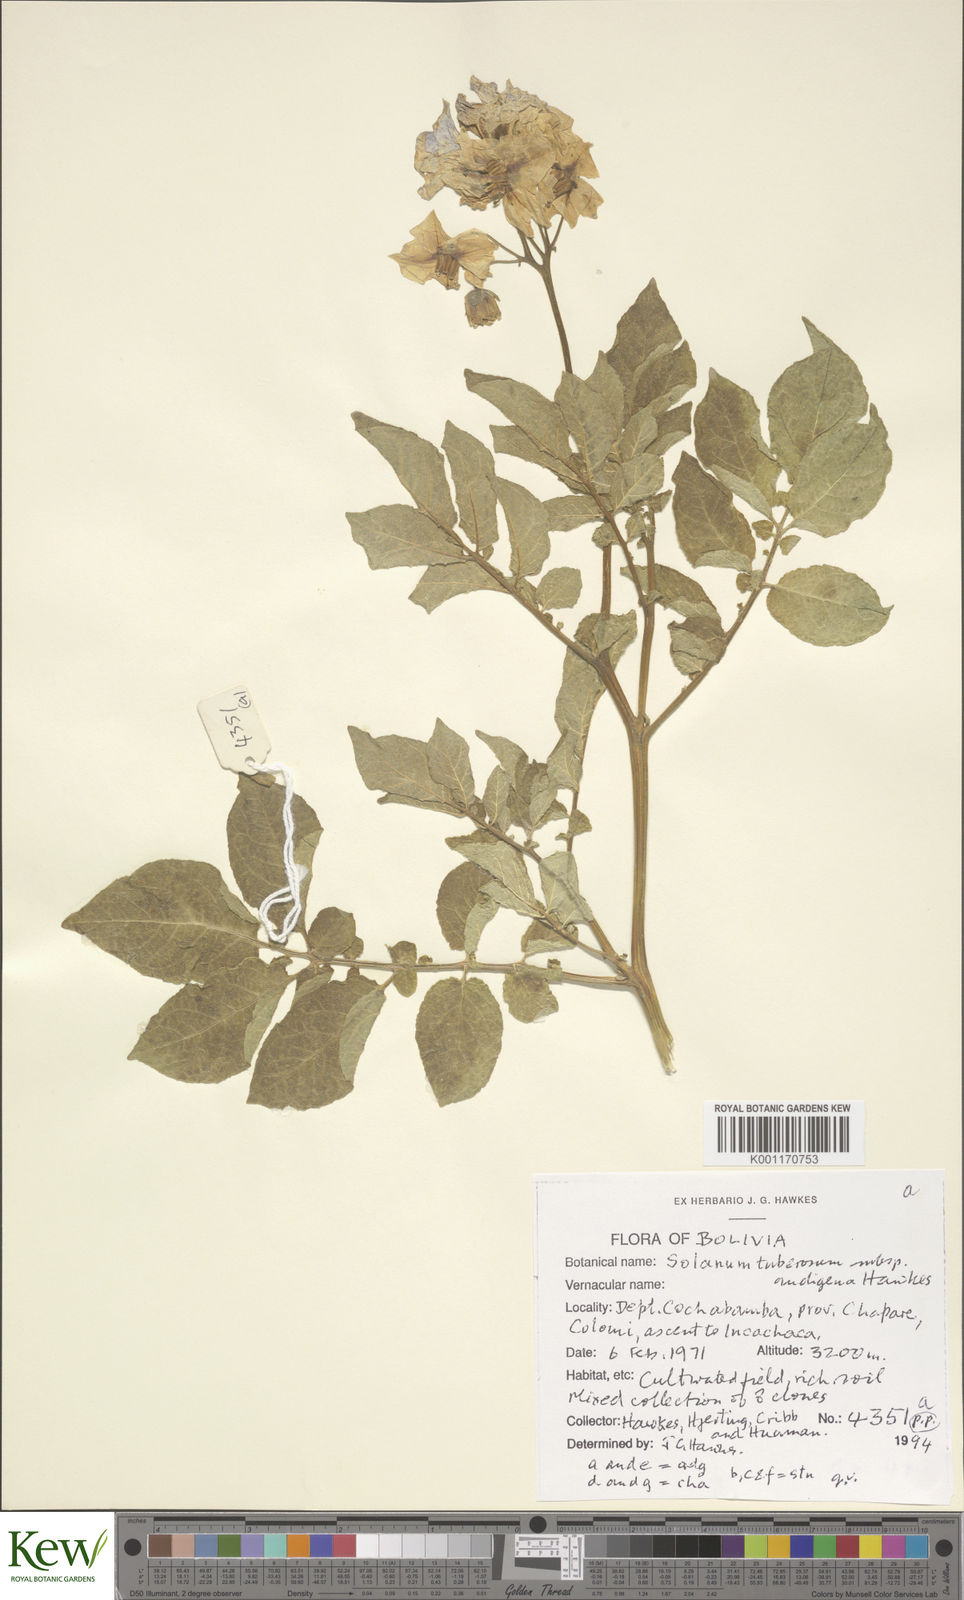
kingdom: Plantae
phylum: Tracheophyta
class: Magnoliopsida
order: Solanales
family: Solanaceae
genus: Solanum
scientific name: Solanum tuberosum
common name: Potato
